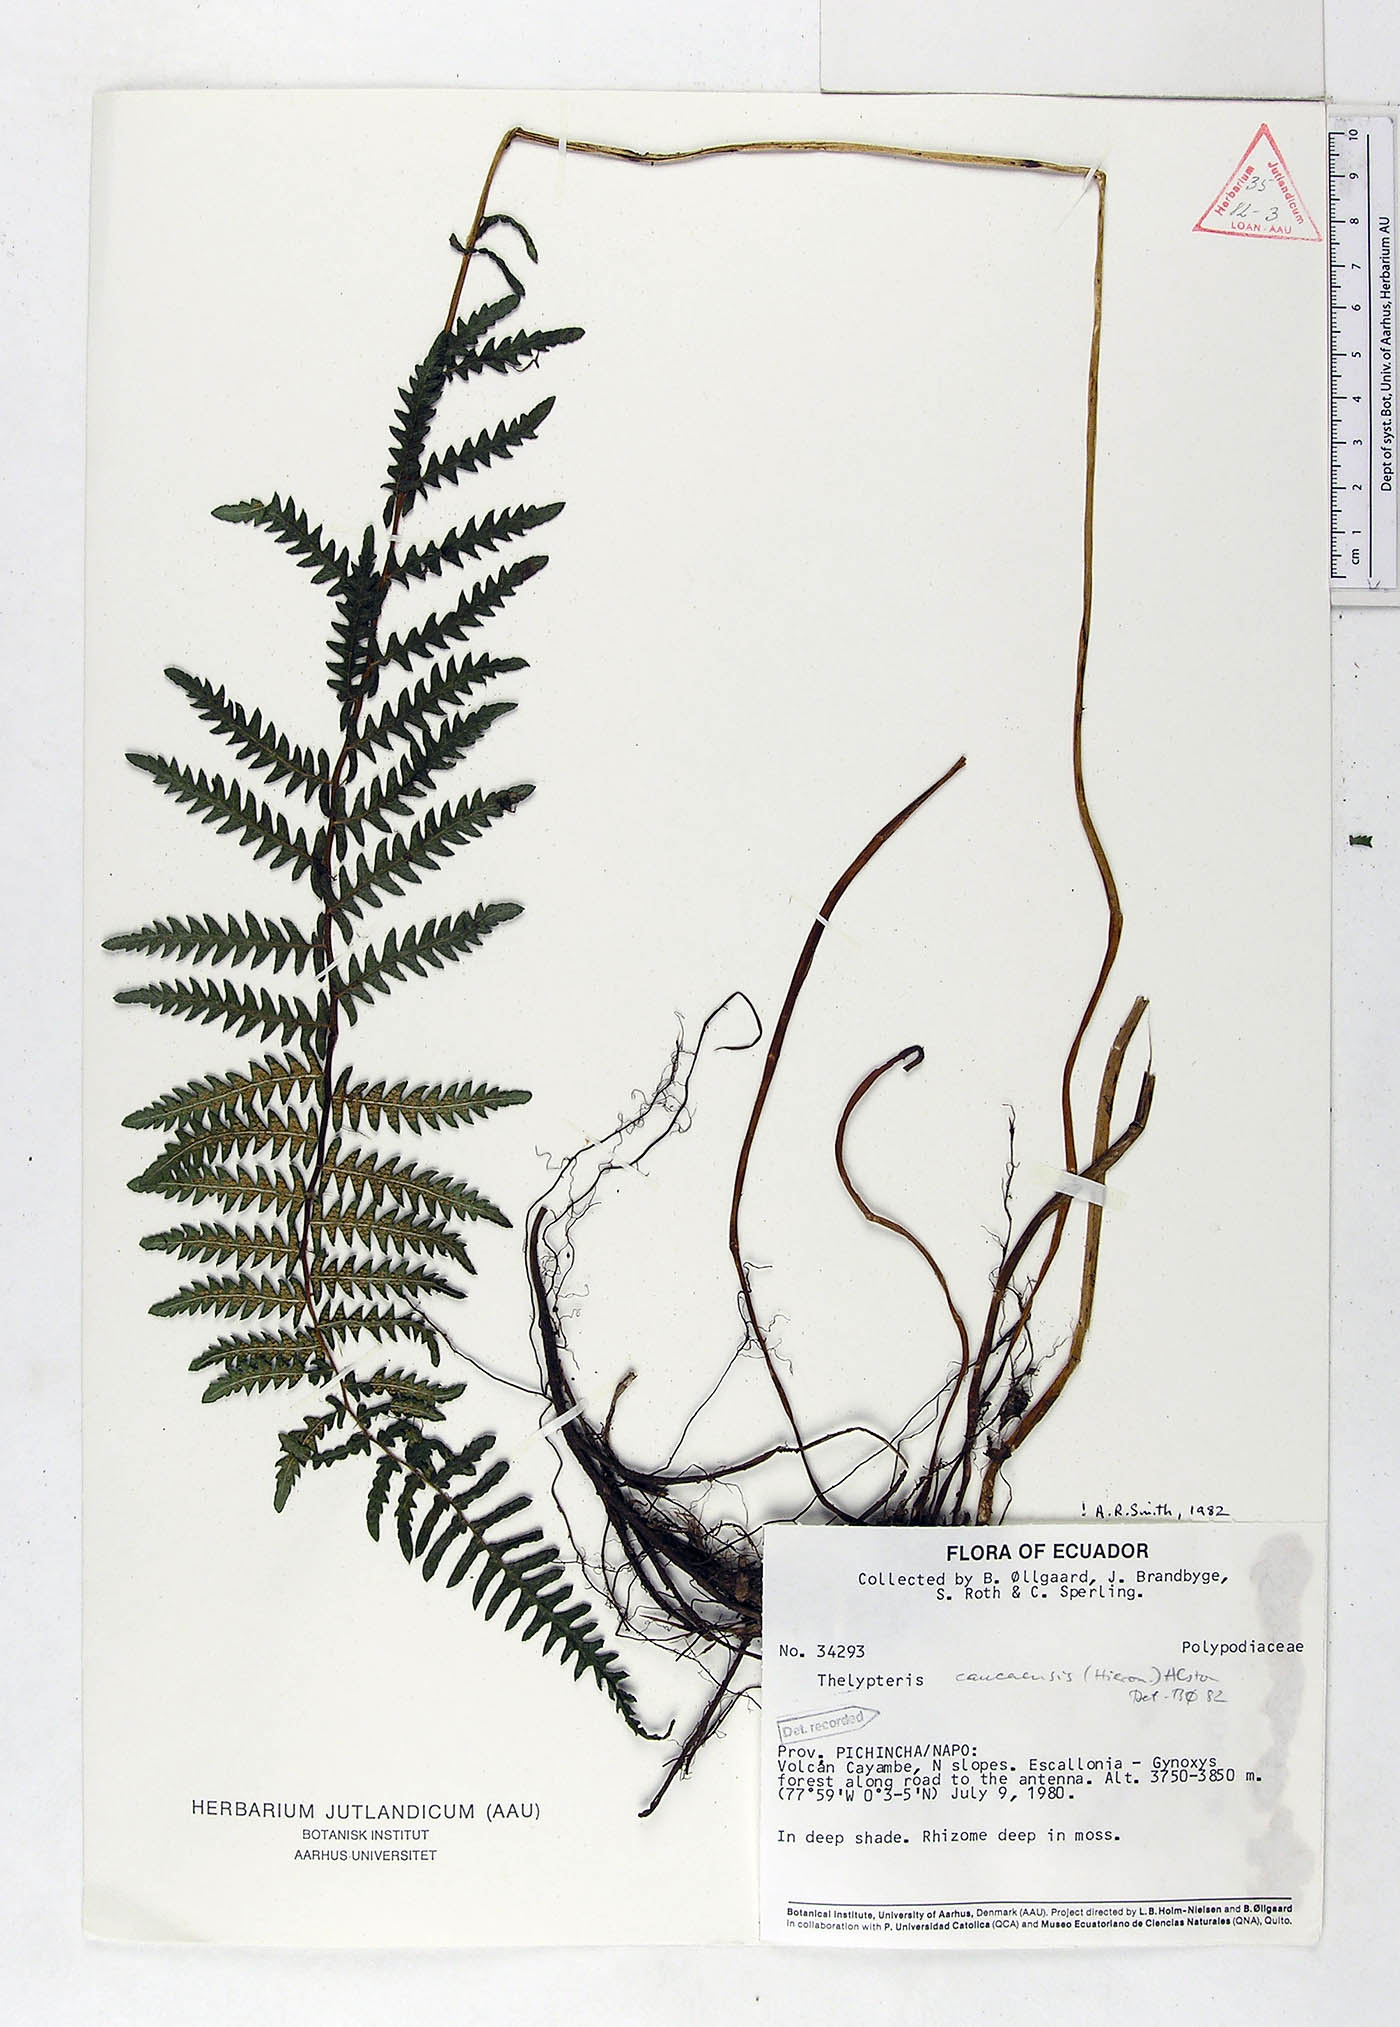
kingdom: Plantae
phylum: Tracheophyta
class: Polypodiopsida
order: Polypodiales
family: Thelypteridaceae
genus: Amauropelta
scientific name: Amauropelta caucaensis
